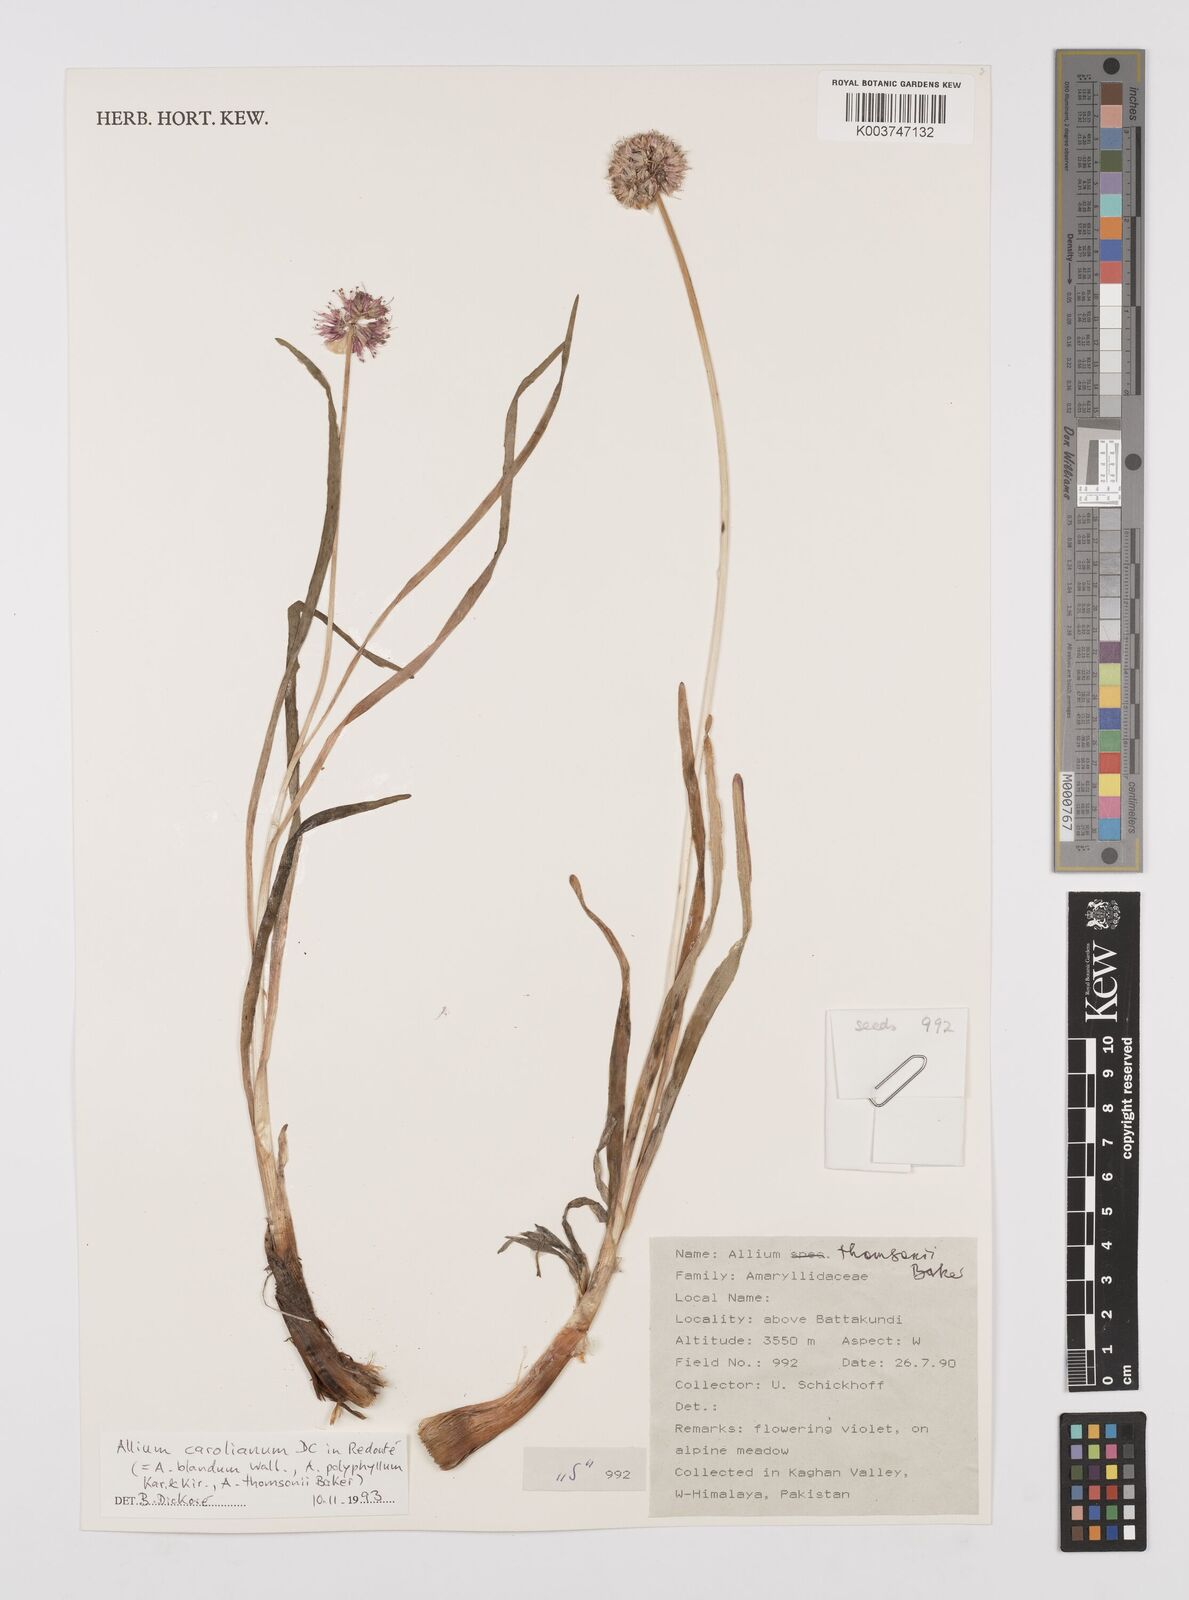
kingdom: Plantae
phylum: Tracheophyta
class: Liliopsida
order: Asparagales
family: Amaryllidaceae
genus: Allium
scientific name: Allium carolinianum
